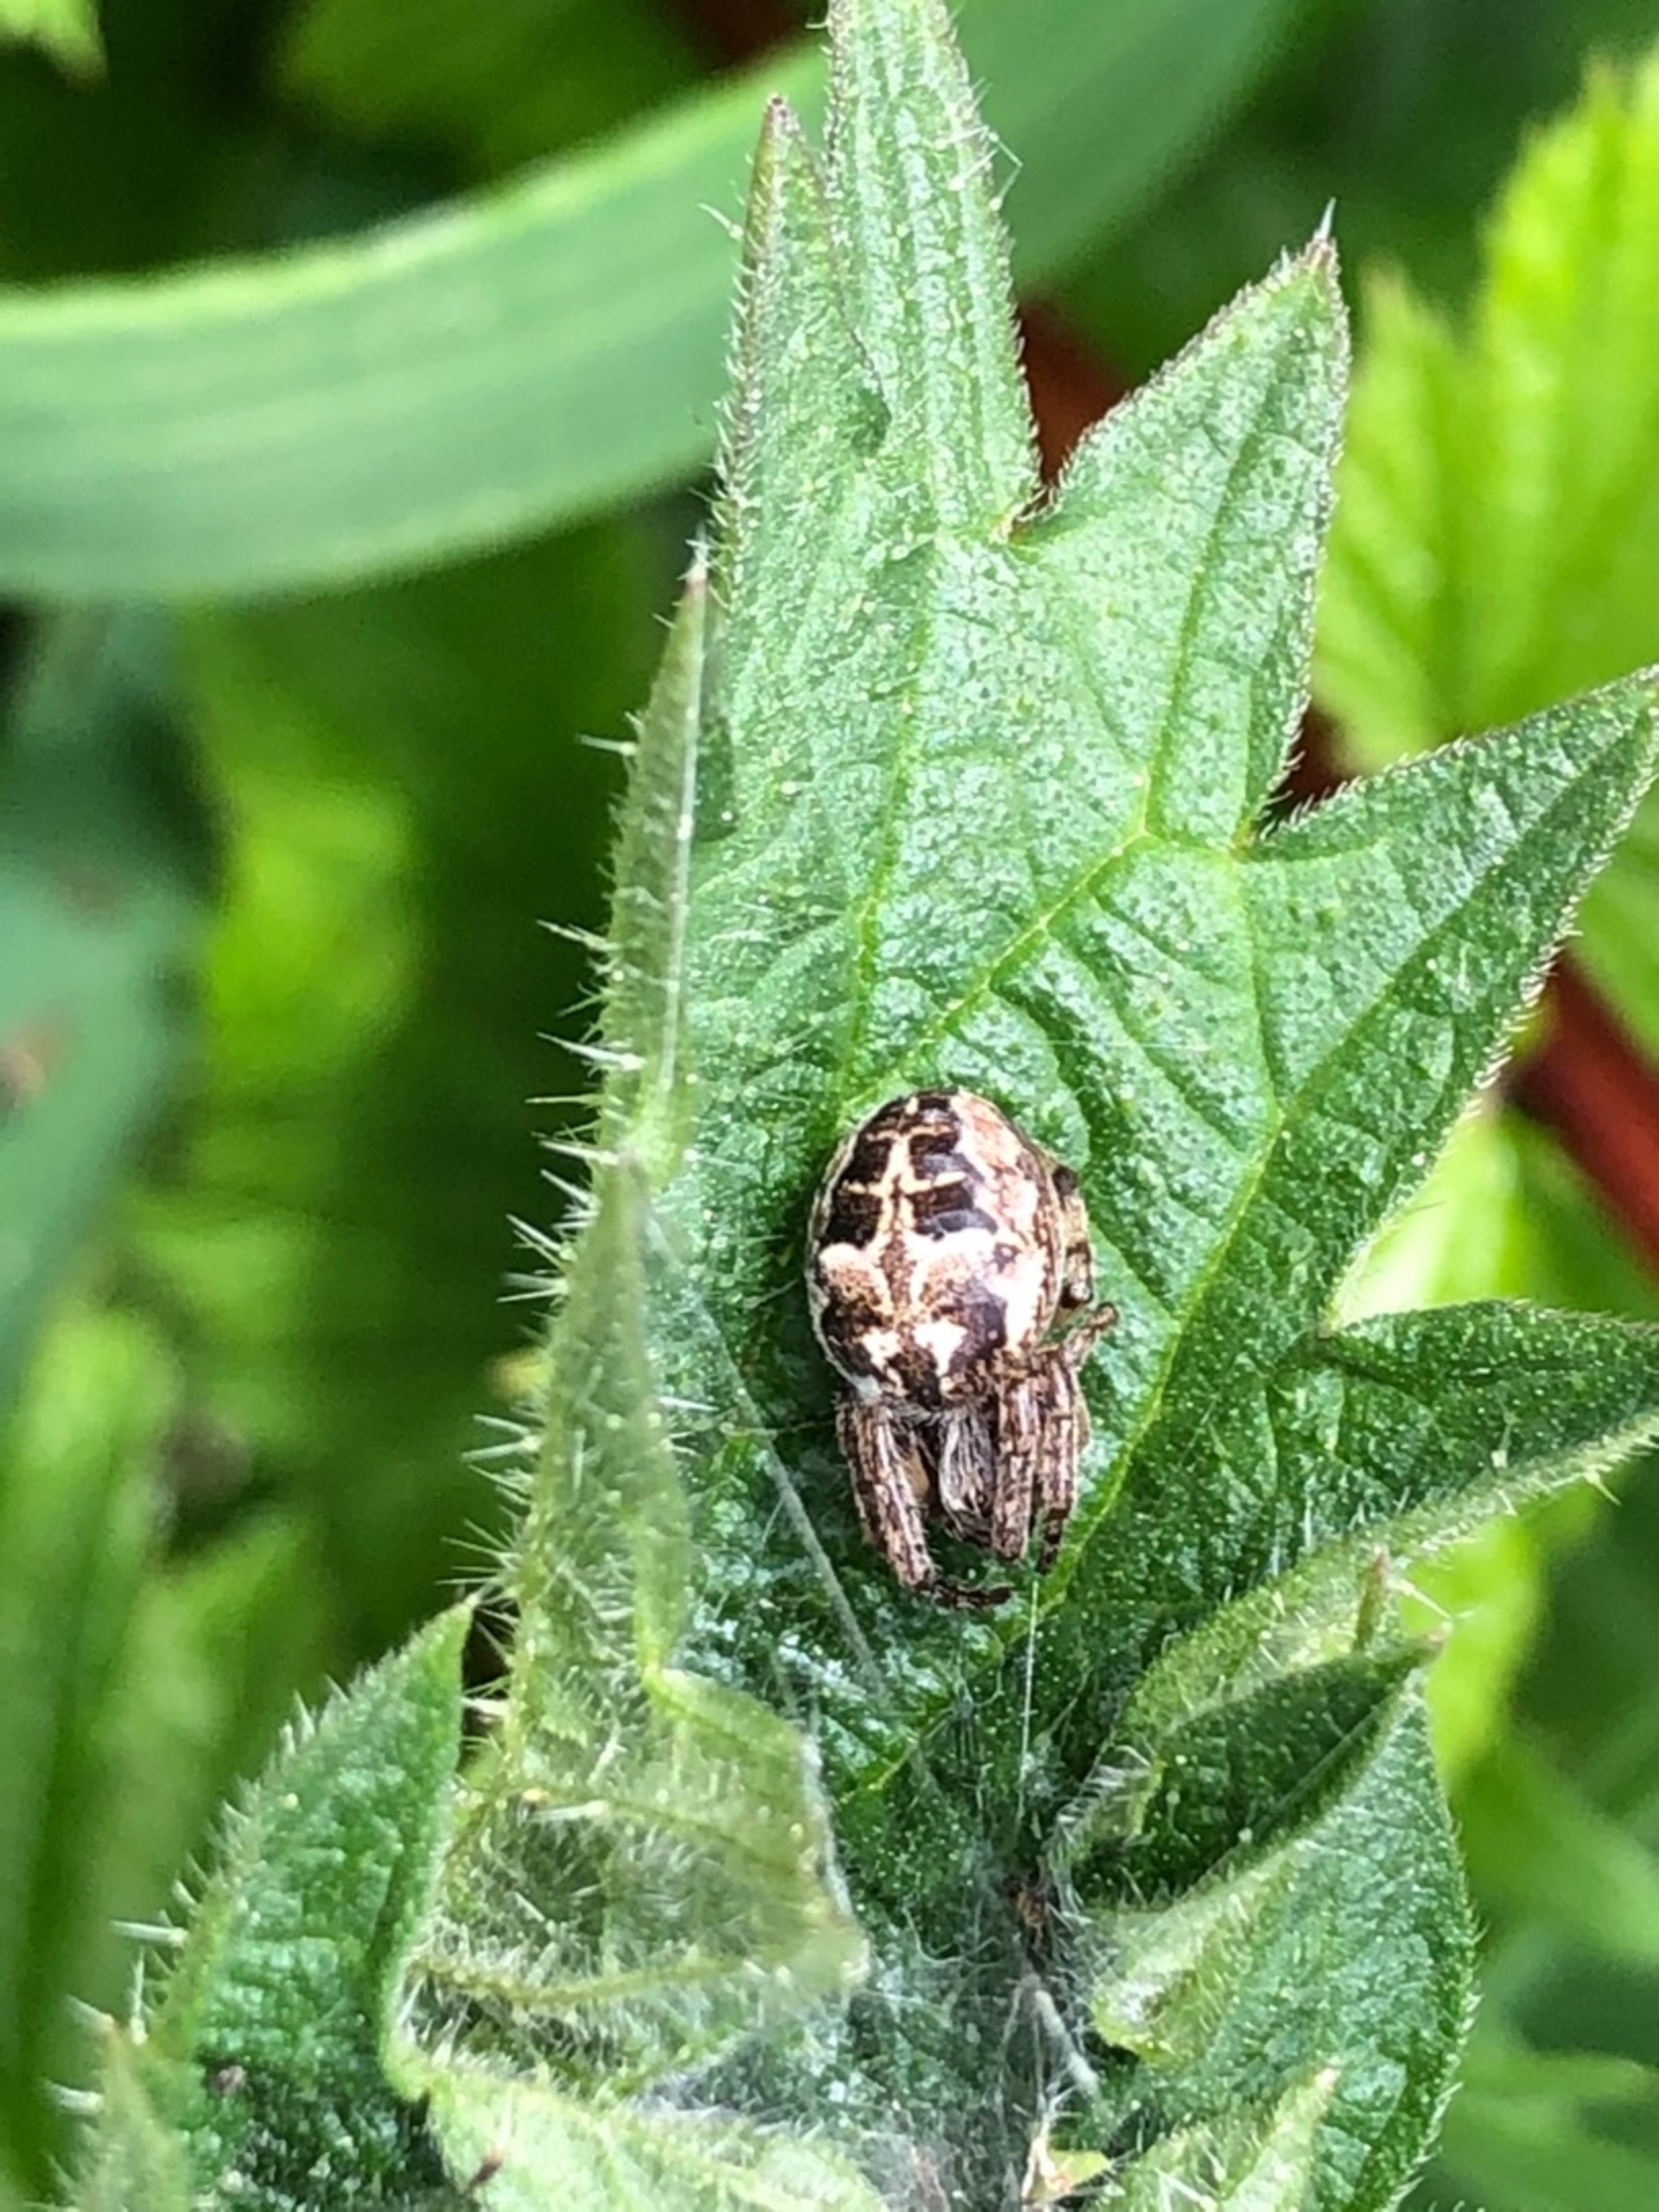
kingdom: Animalia
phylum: Arthropoda
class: Arachnida
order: Araneae
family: Araneidae
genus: Larinioides
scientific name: Larinioides cornutus
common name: Sivhjulspinder
